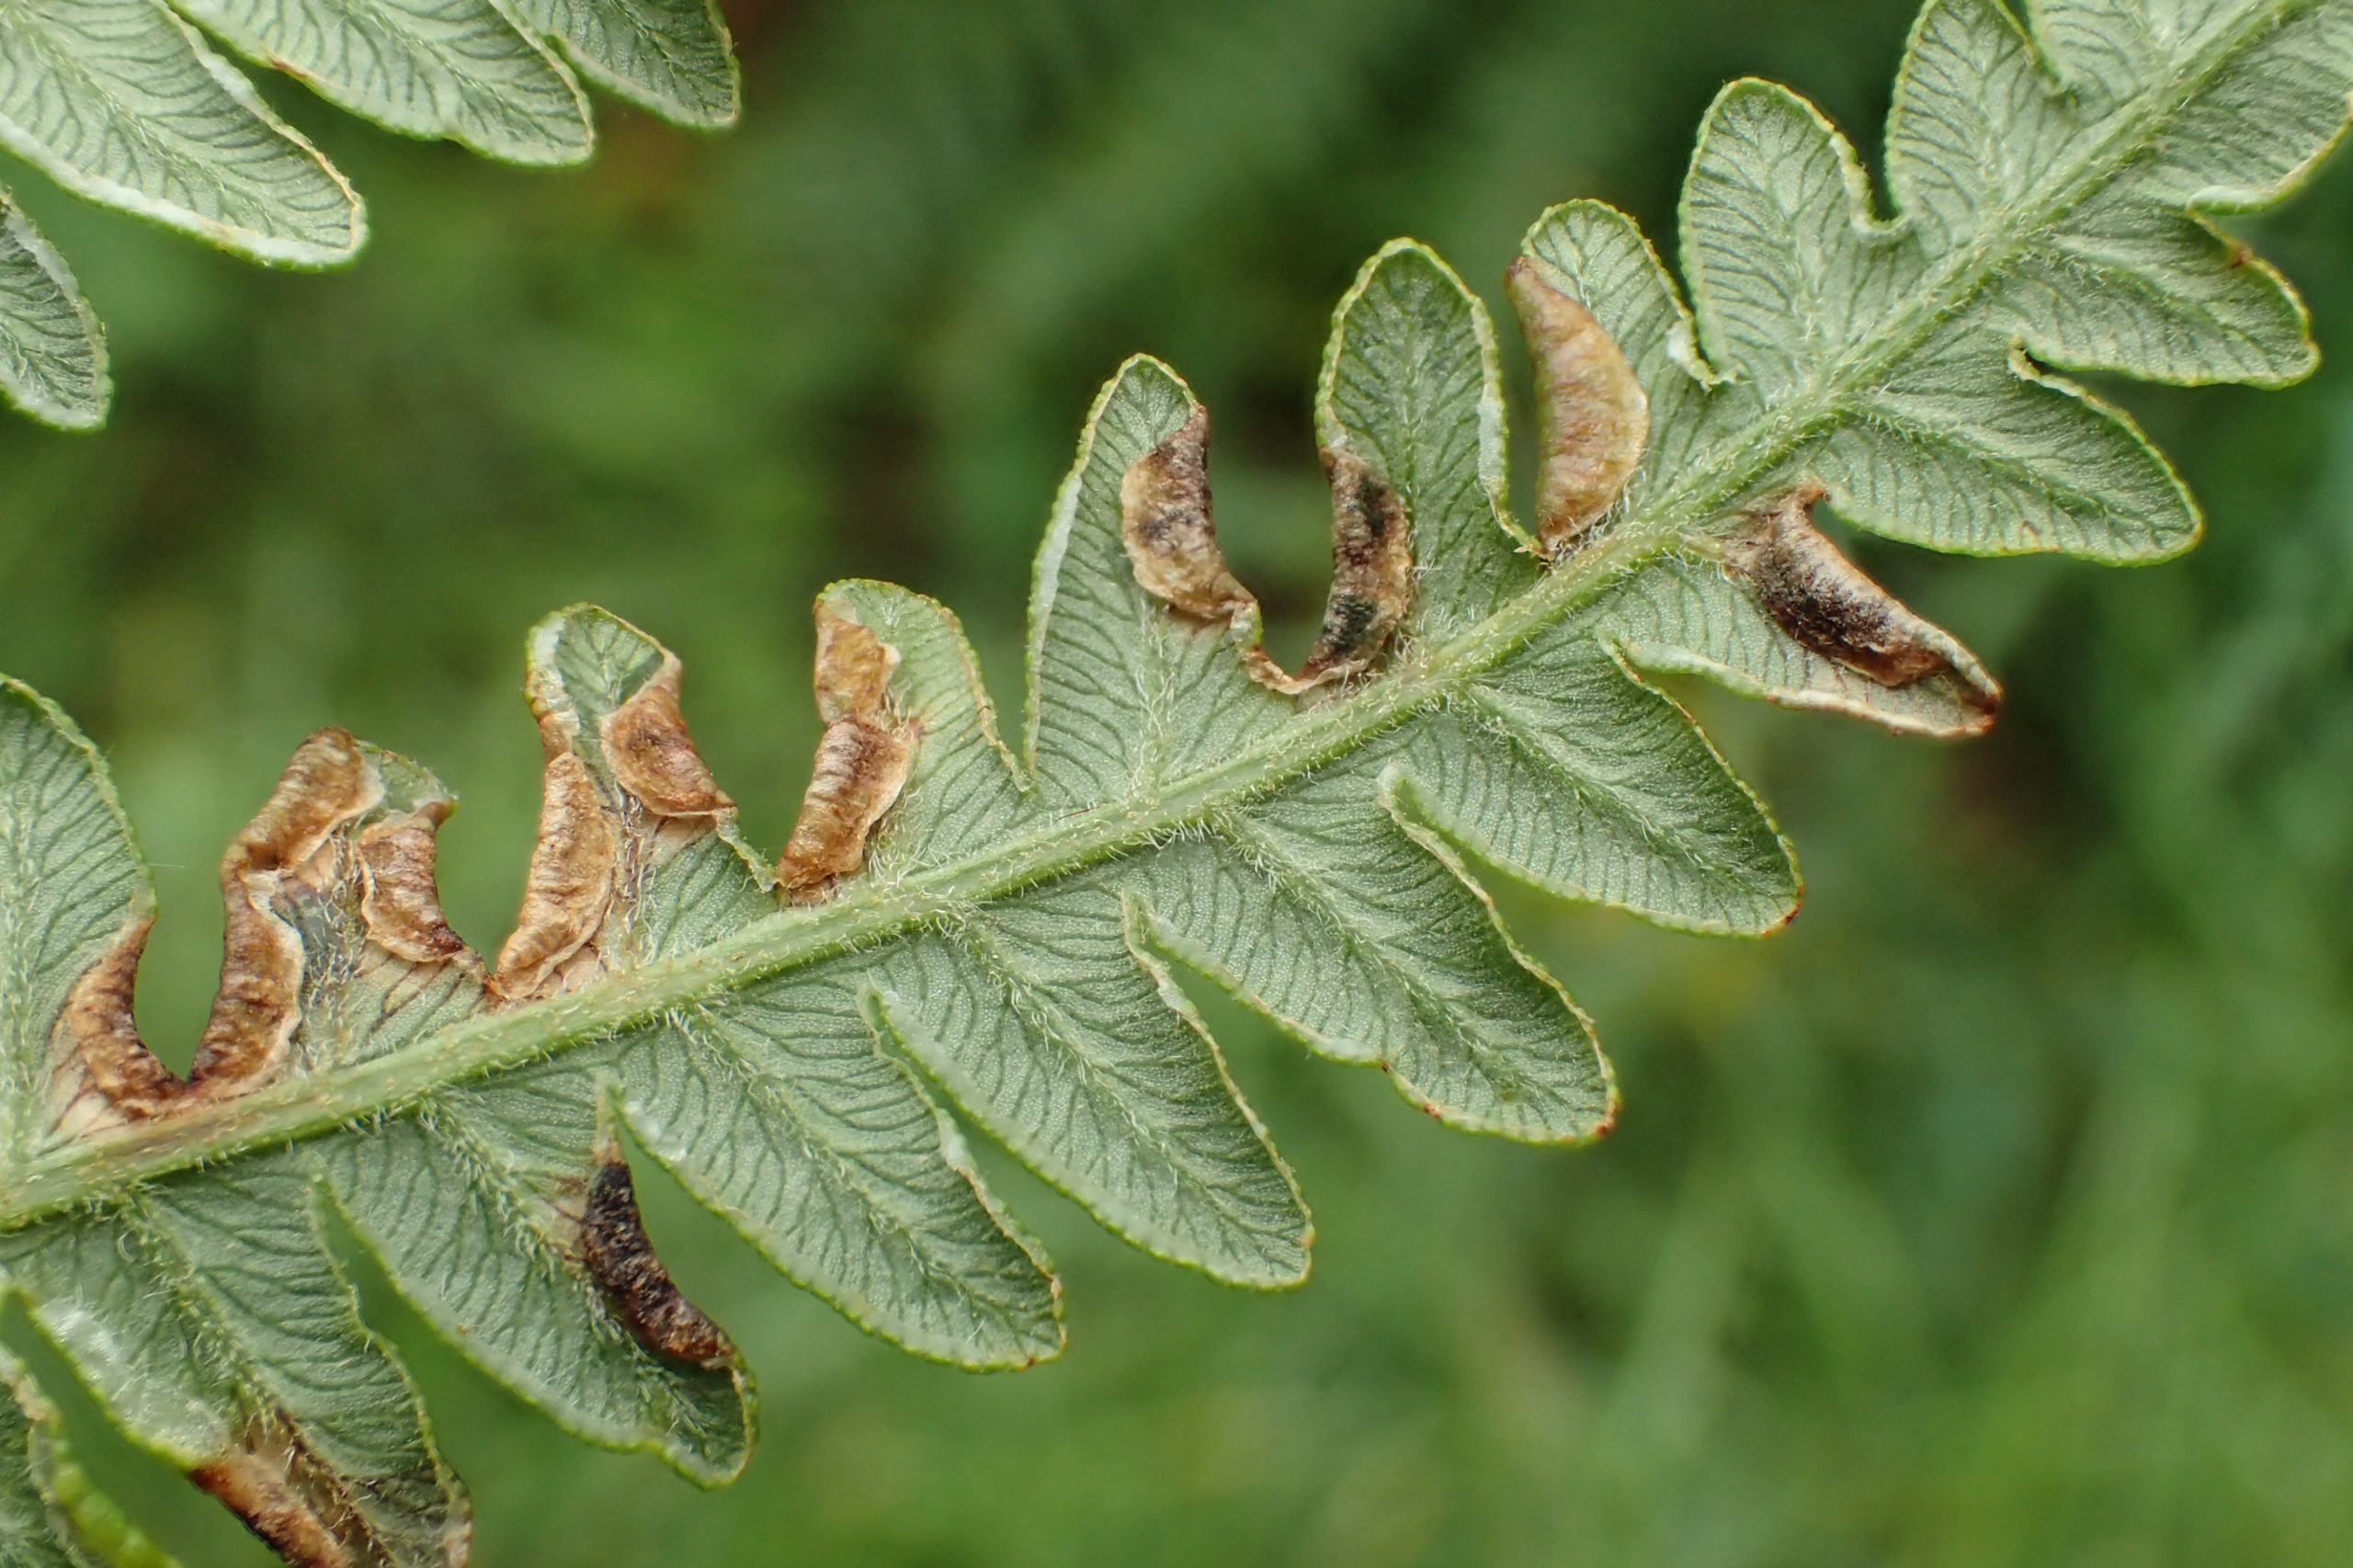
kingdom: Animalia
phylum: Arthropoda
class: Insecta
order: Diptera
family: Cecidomyiidae
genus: Dasineura
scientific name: Dasineura pteridicola
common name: Hvid ørnebregnegalmyg
